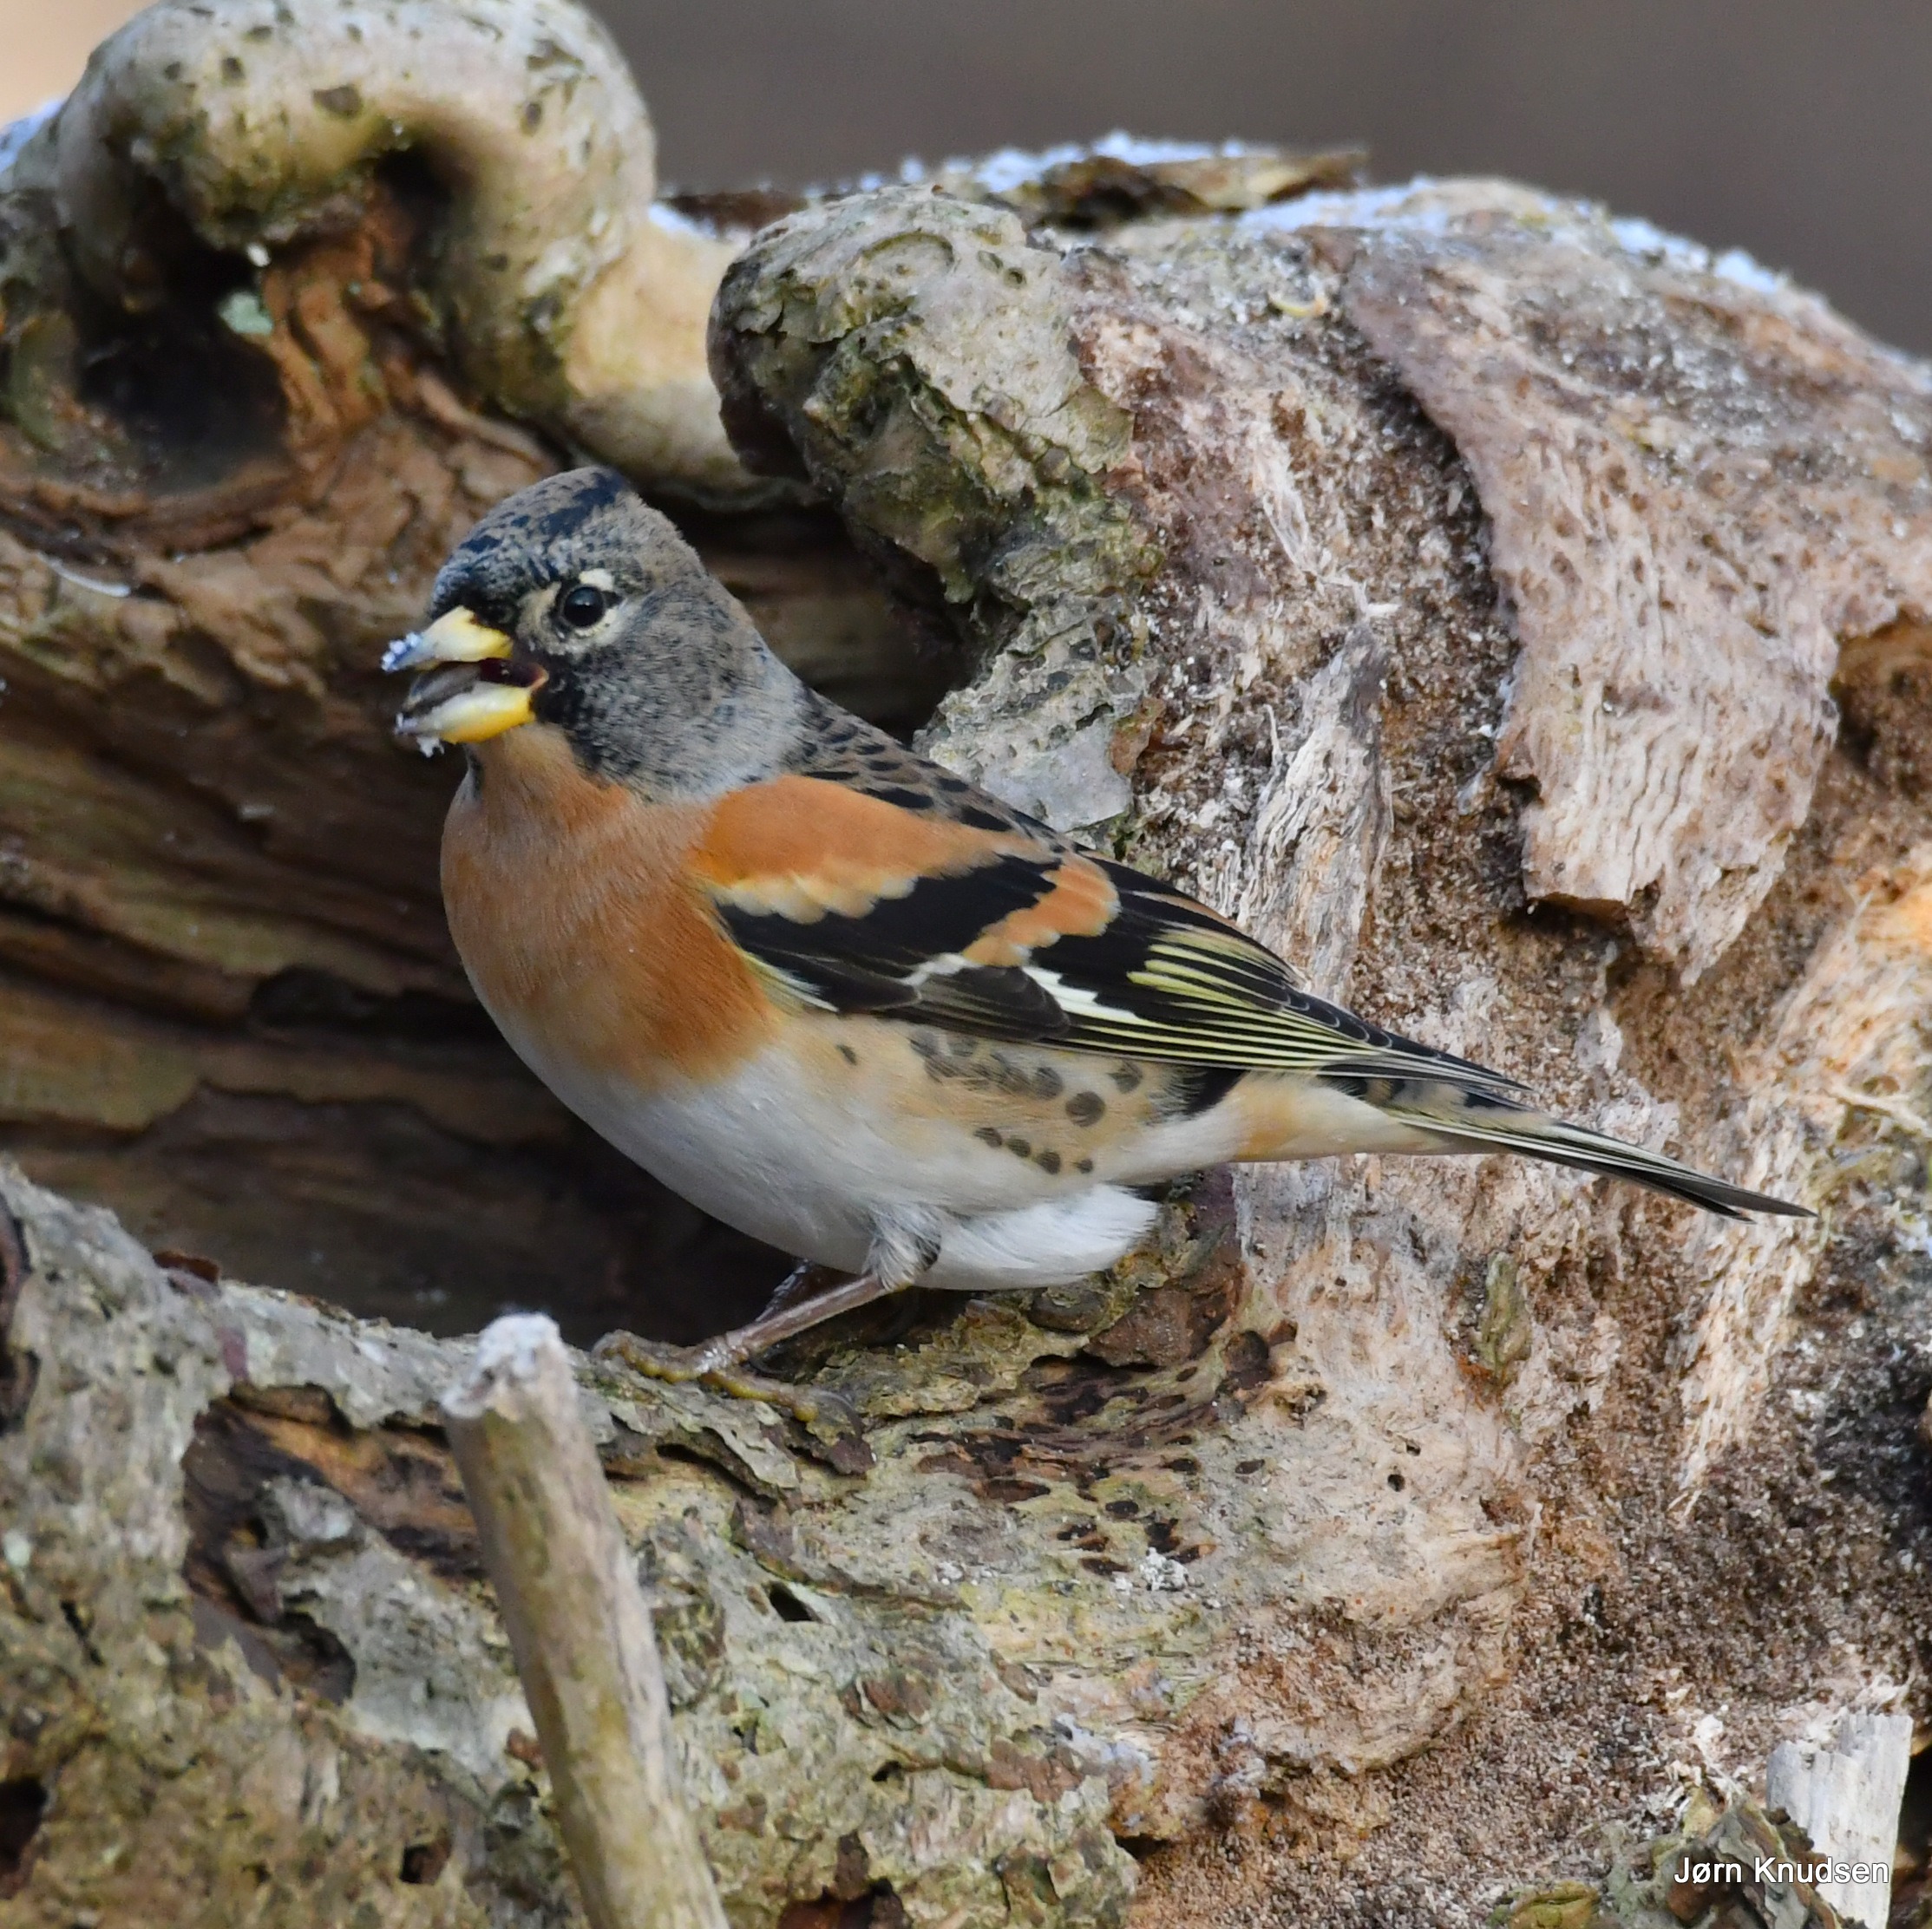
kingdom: Animalia
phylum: Chordata
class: Aves
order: Passeriformes
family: Fringillidae
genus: Fringilla
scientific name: Fringilla montifringilla
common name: Kvækerfinke
